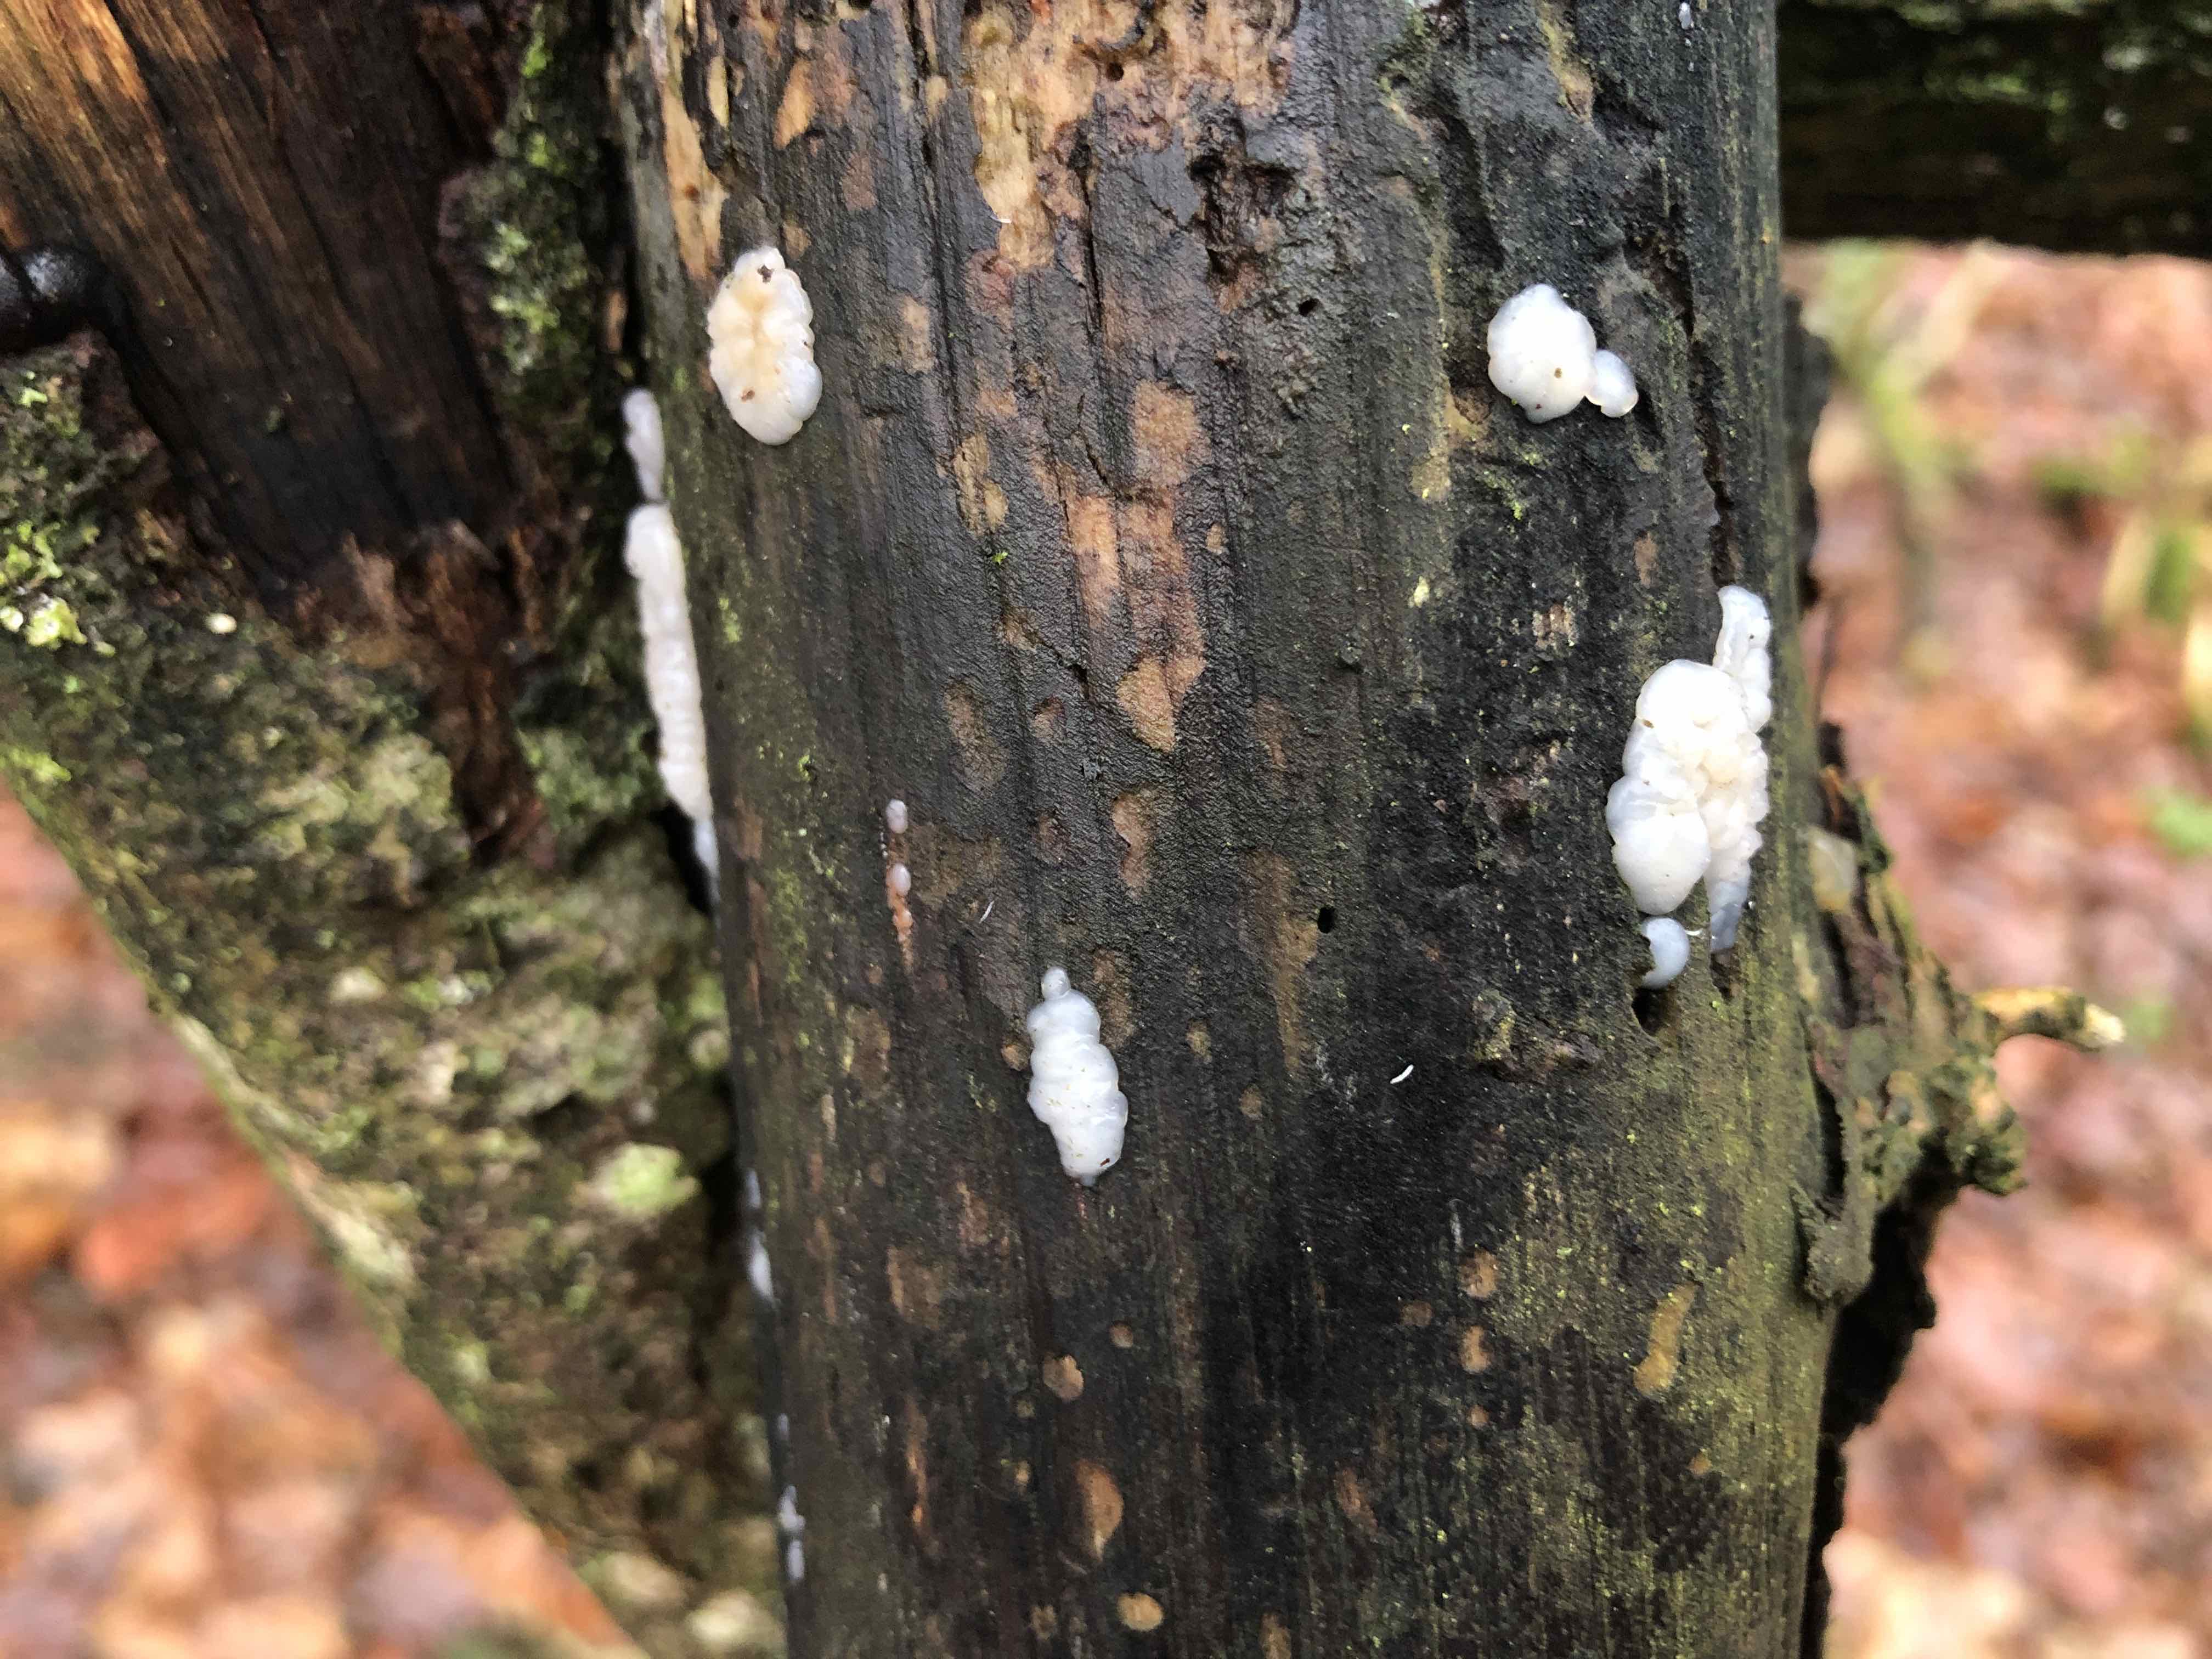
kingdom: Fungi
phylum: Basidiomycota
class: Agaricomycetes
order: Auriculariales
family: Auriculariaceae
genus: Exidia
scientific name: Exidia thuretiana
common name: hvidlig bævretop
